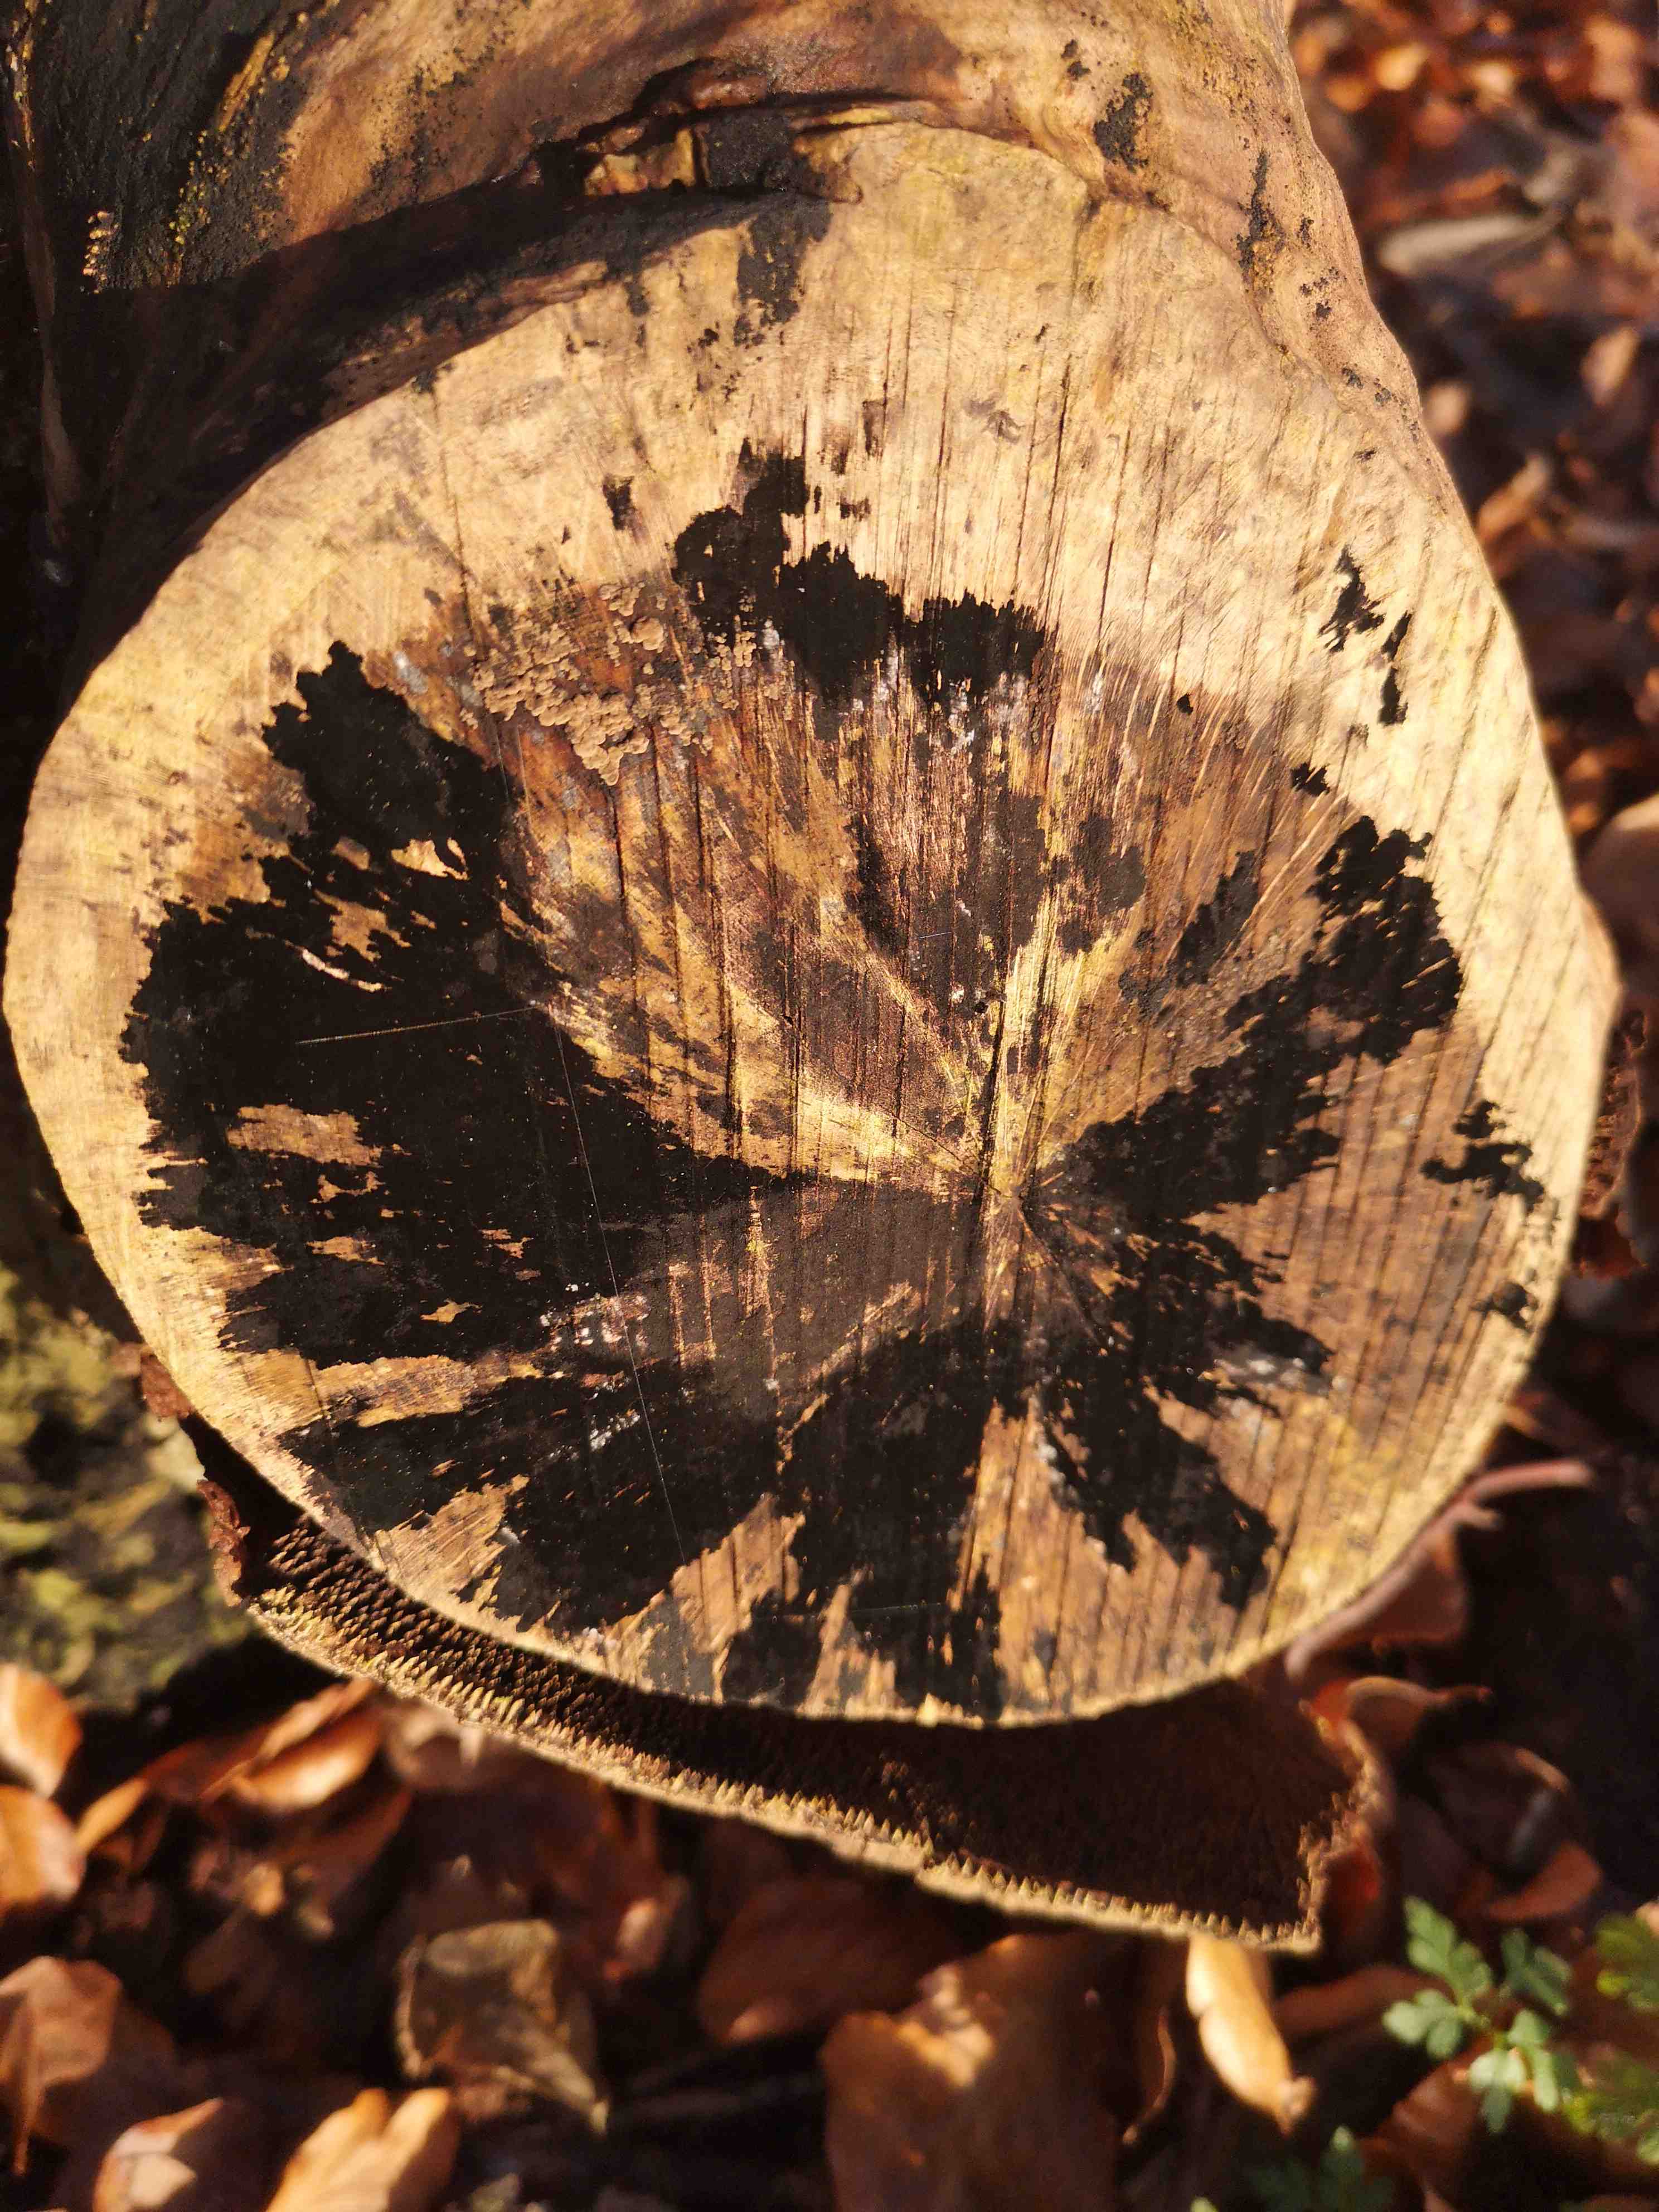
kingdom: Fungi
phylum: Ascomycota
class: Leotiomycetes
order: Helotiales
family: Helotiaceae
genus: Bispora
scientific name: Bispora pallescens
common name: måtte-snitskive
